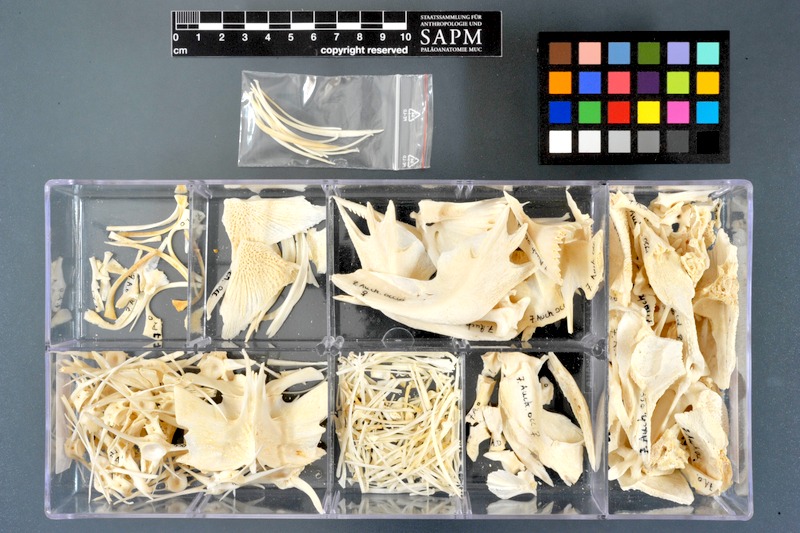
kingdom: Animalia
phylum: Chordata
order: Siluriformes
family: Claroteidae
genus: Auchenoglanis
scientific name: Auchenoglanis occidentalis
